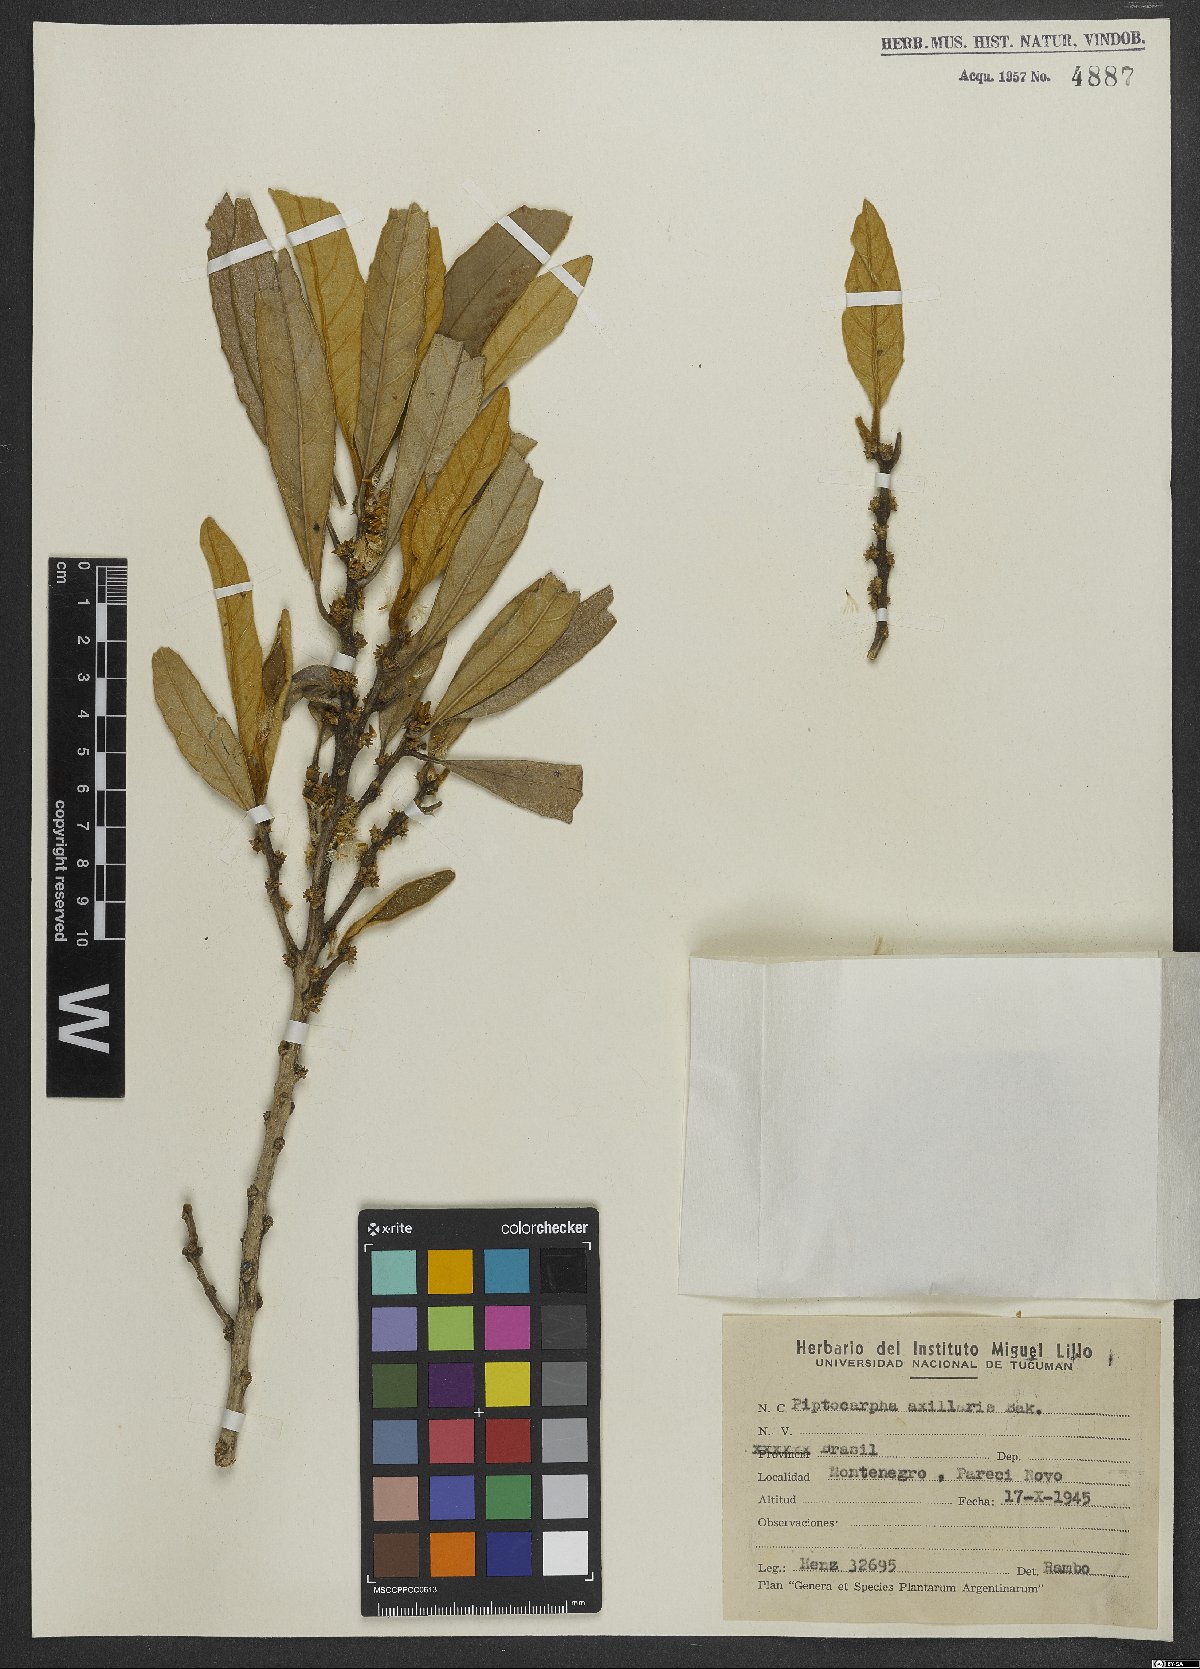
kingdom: Plantae
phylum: Tracheophyta
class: Magnoliopsida
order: Asterales
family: Asteraceae
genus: Piptocarpha
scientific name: Piptocarpha axillaris
